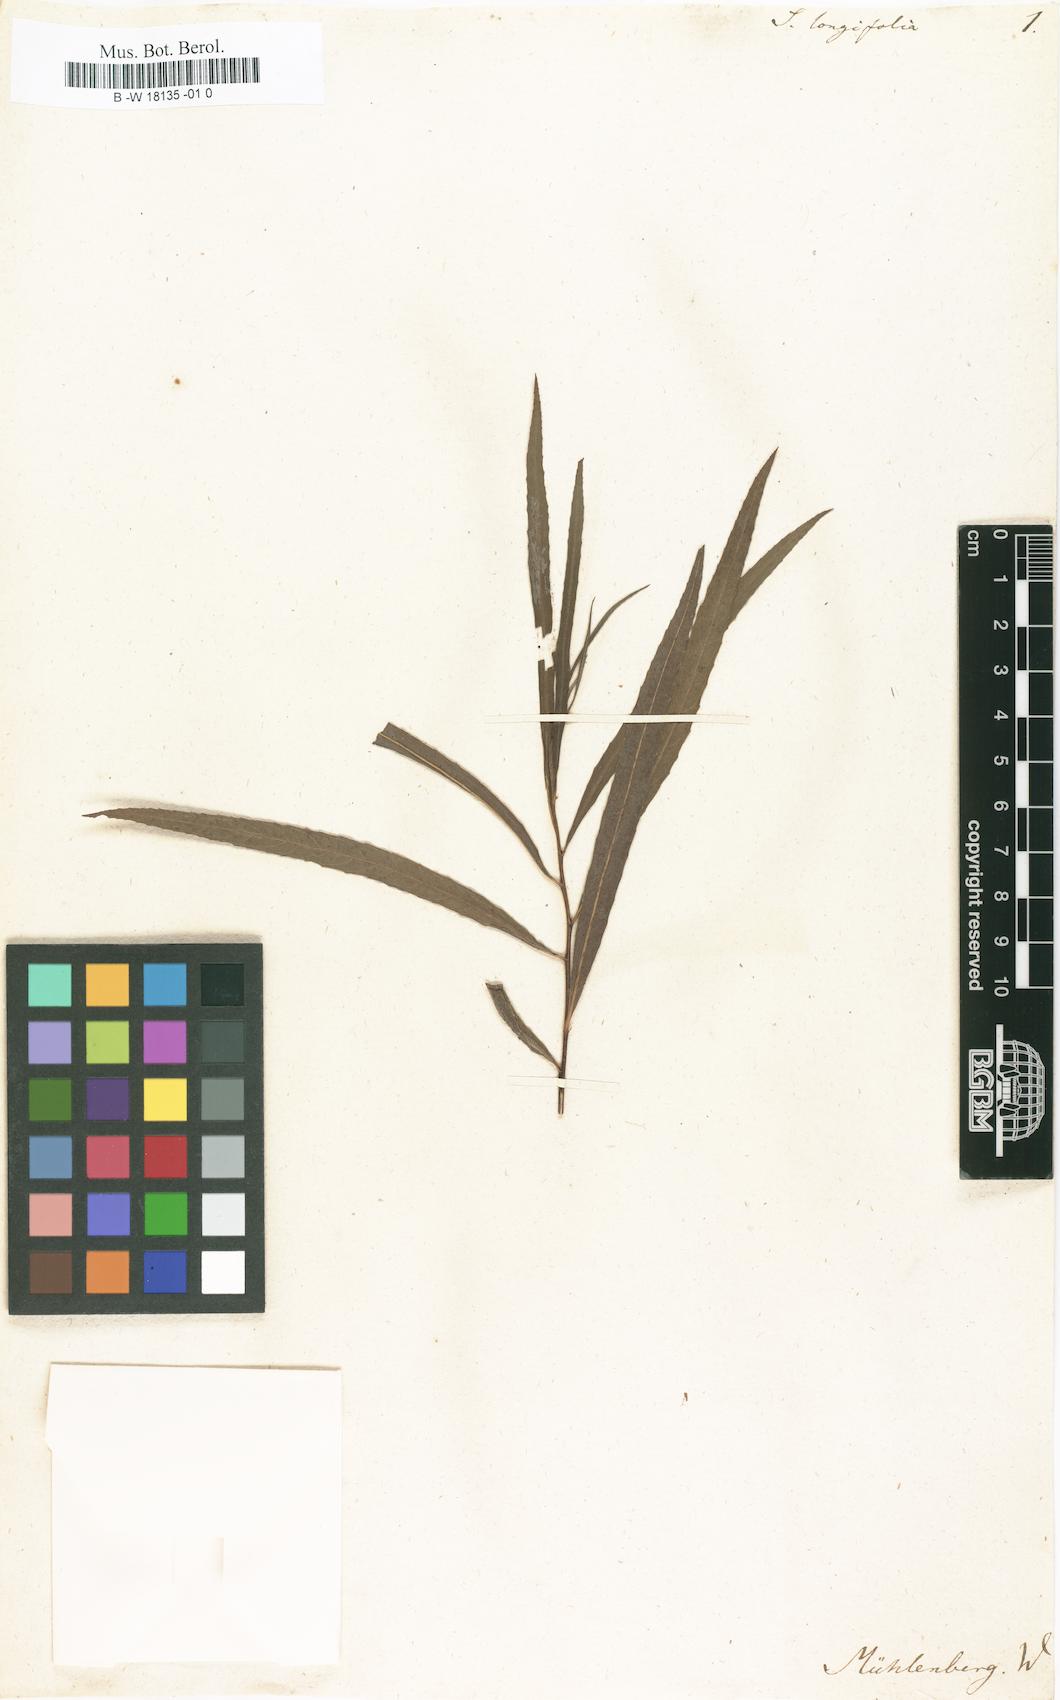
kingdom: Plantae
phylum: Tracheophyta
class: Magnoliopsida
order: Malpighiales
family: Salicaceae
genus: Salix
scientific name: Salix
